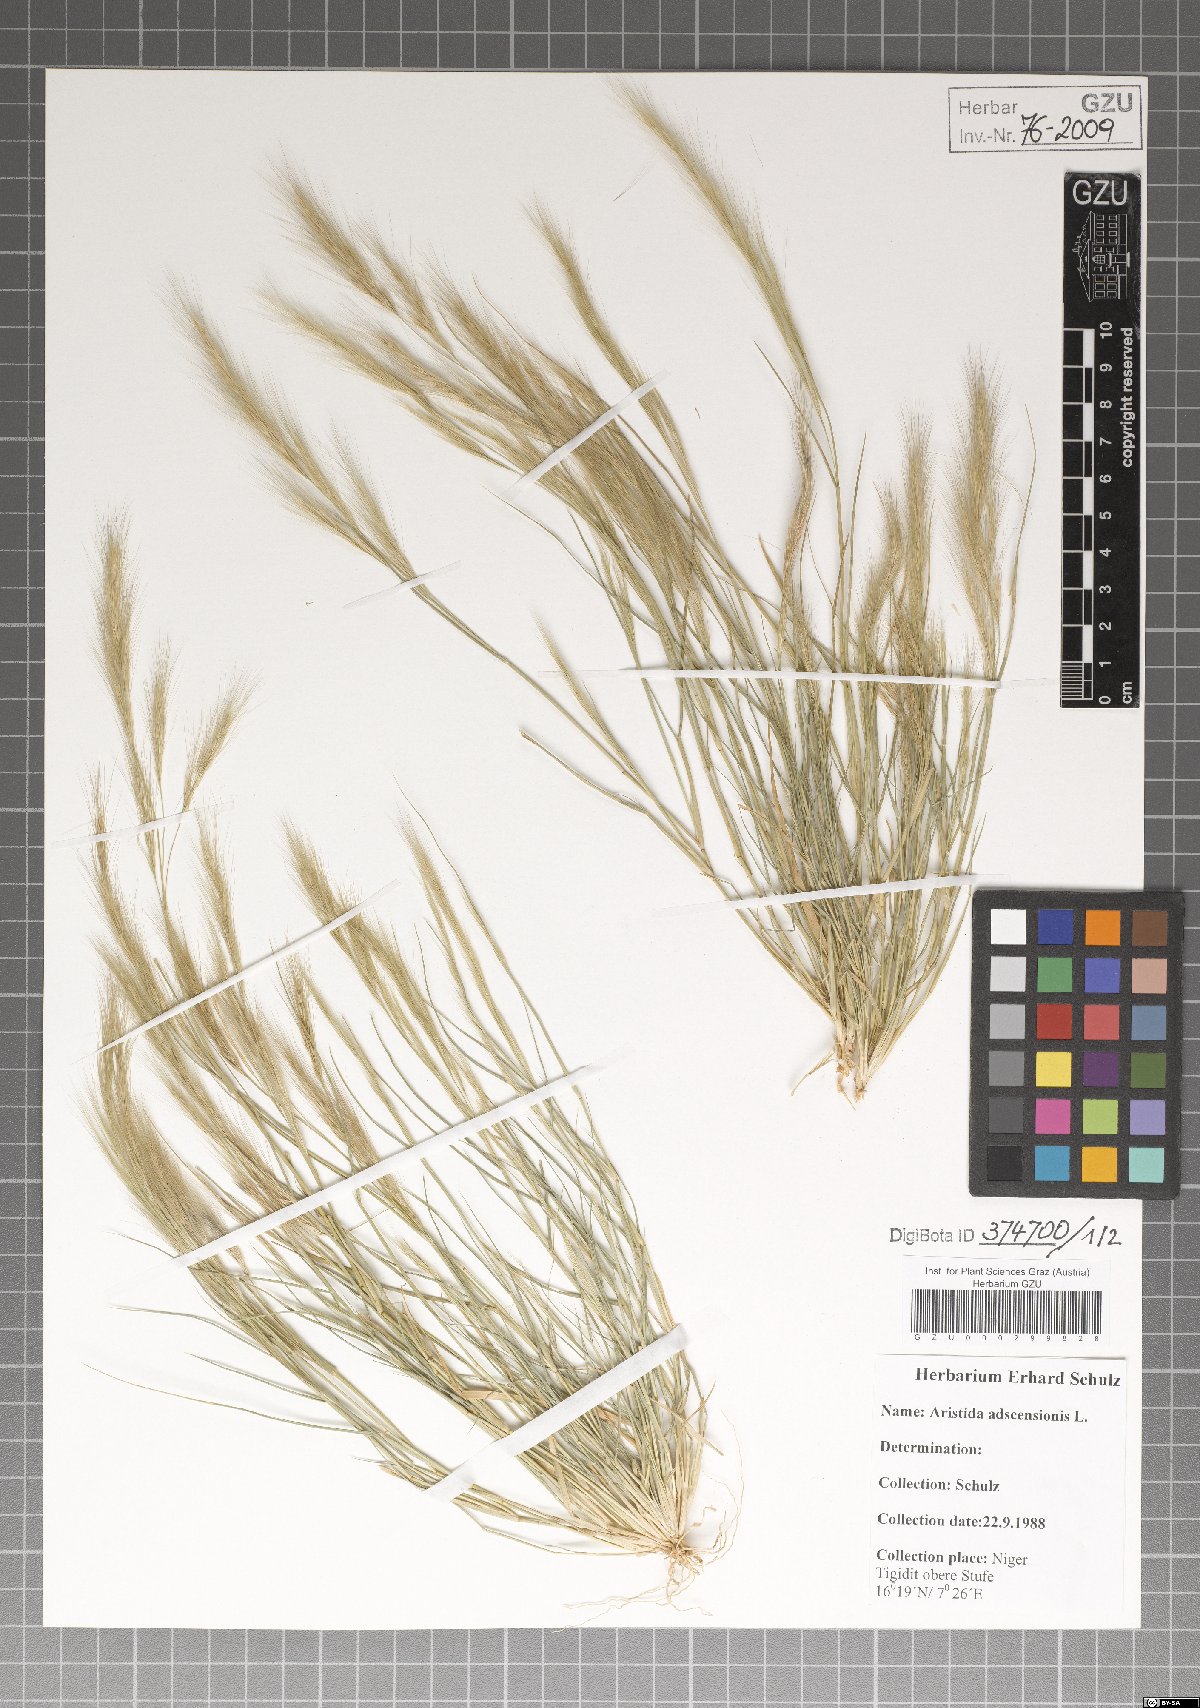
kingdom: Plantae
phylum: Tracheophyta
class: Liliopsida
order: Poales
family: Poaceae
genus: Aristida
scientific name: Aristida adscensionis
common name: Sixweeks threeawn
